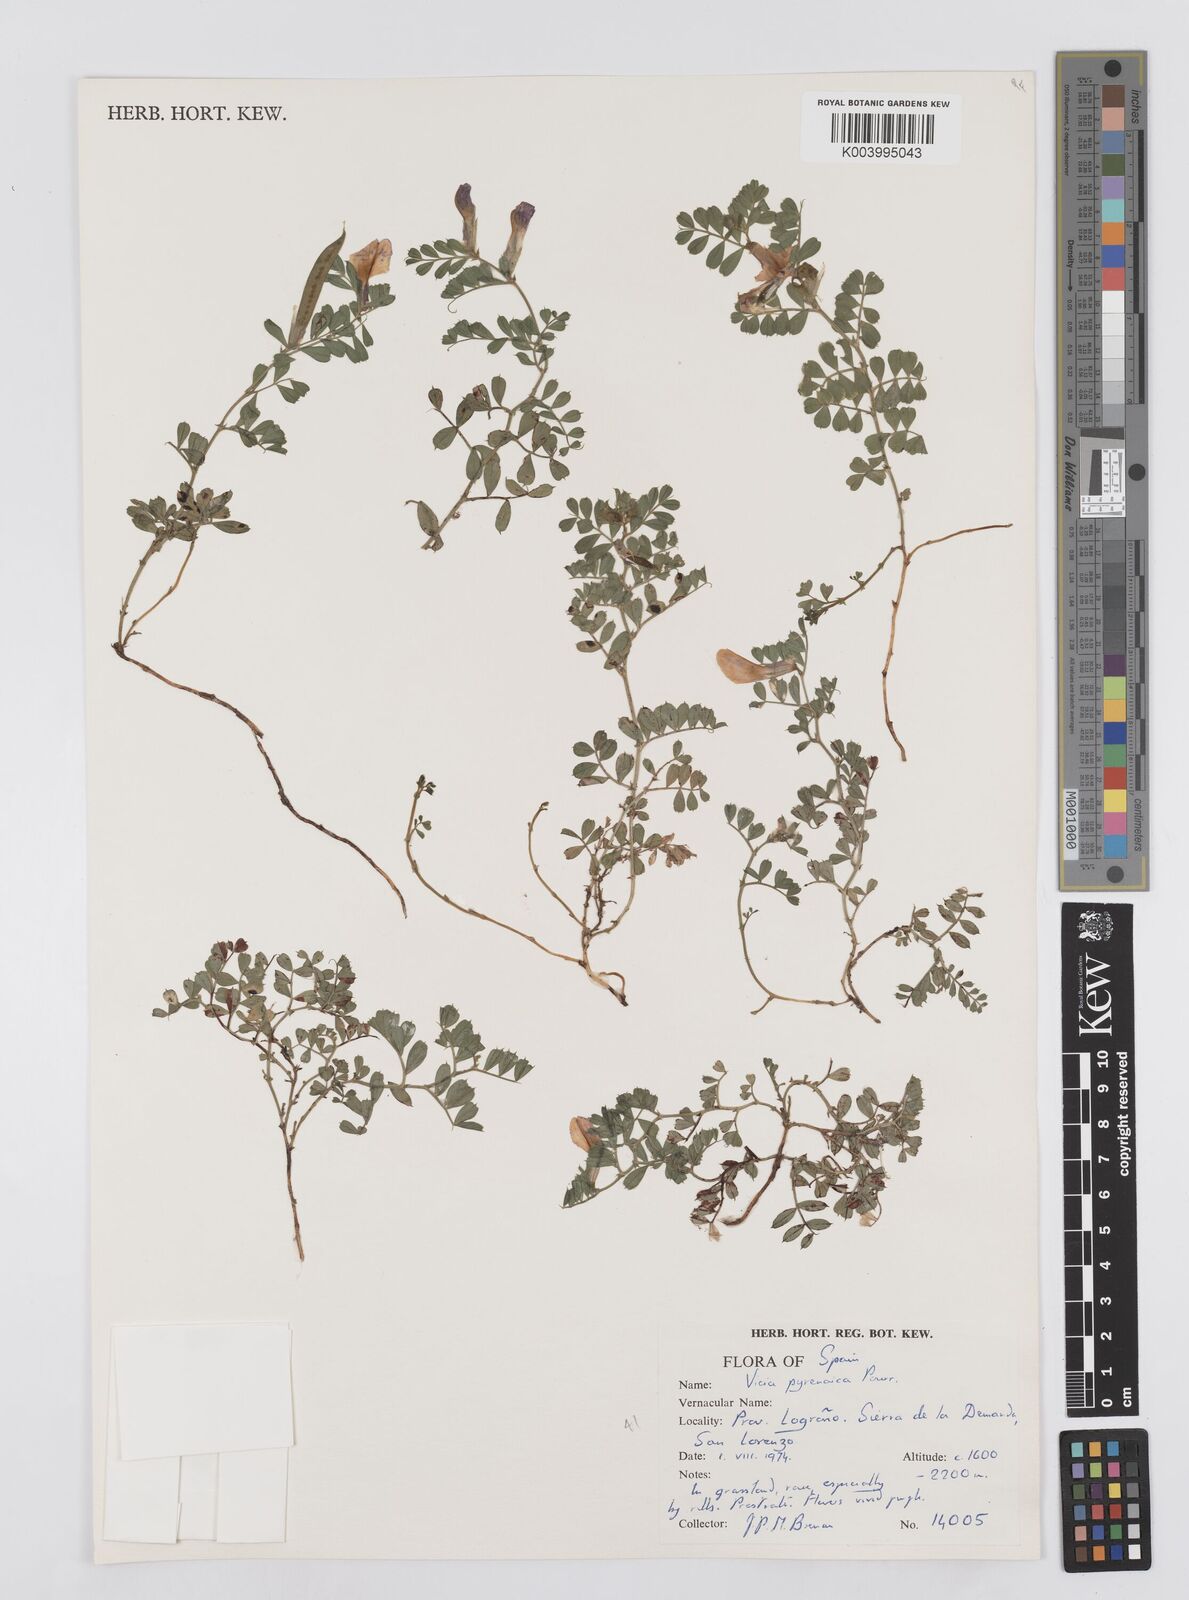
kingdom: Plantae
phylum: Tracheophyta
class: Magnoliopsida
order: Fabales
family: Fabaceae
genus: Vicia
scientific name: Vicia pyrenaica
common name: Pyrenean vetch
